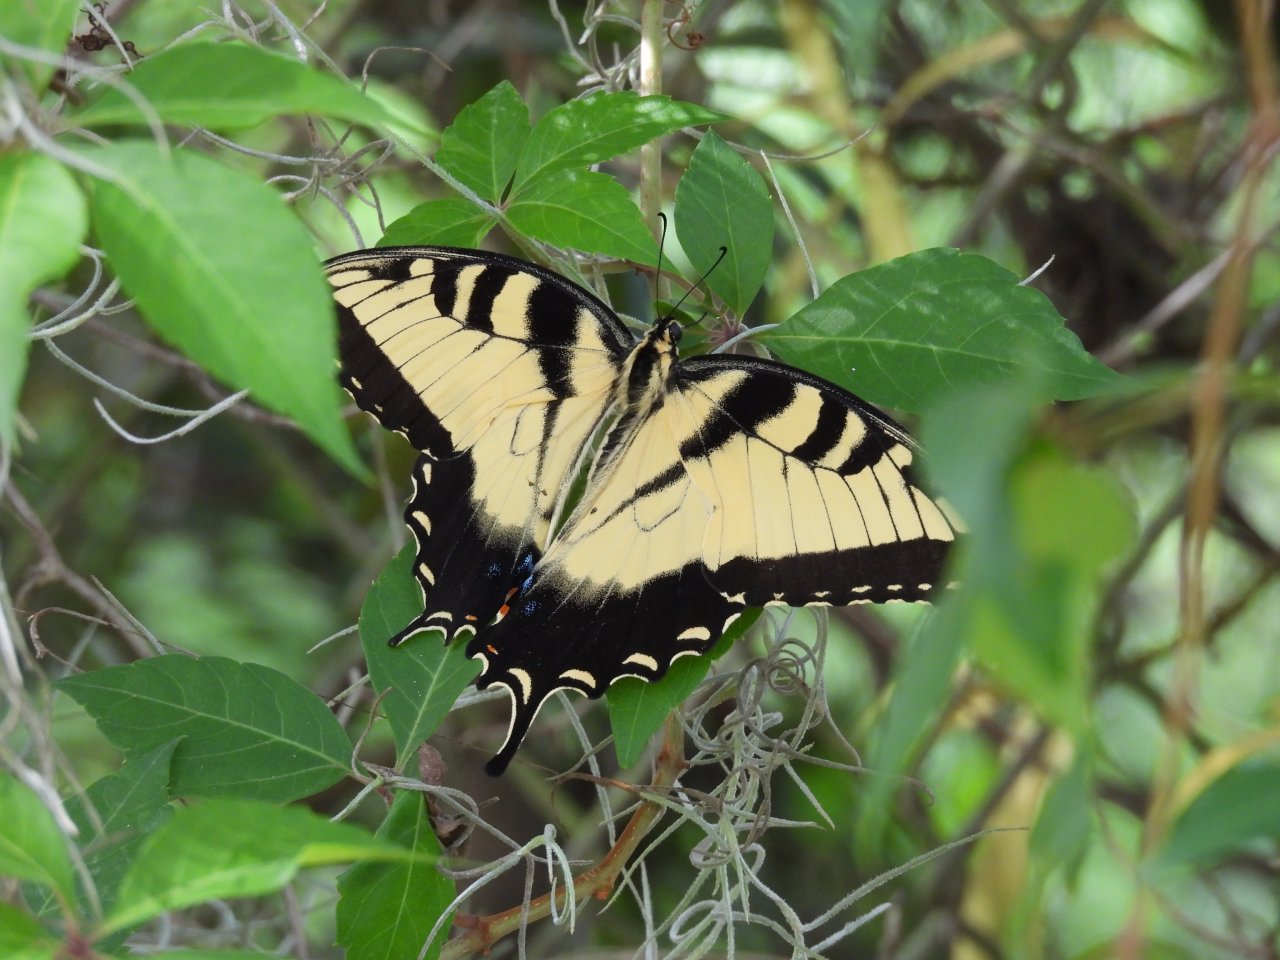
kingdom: Animalia
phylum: Arthropoda
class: Insecta
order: Lepidoptera
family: Papilionidae
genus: Pterourus
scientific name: Pterourus glaucus
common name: Eastern Tiger Swallowtail
